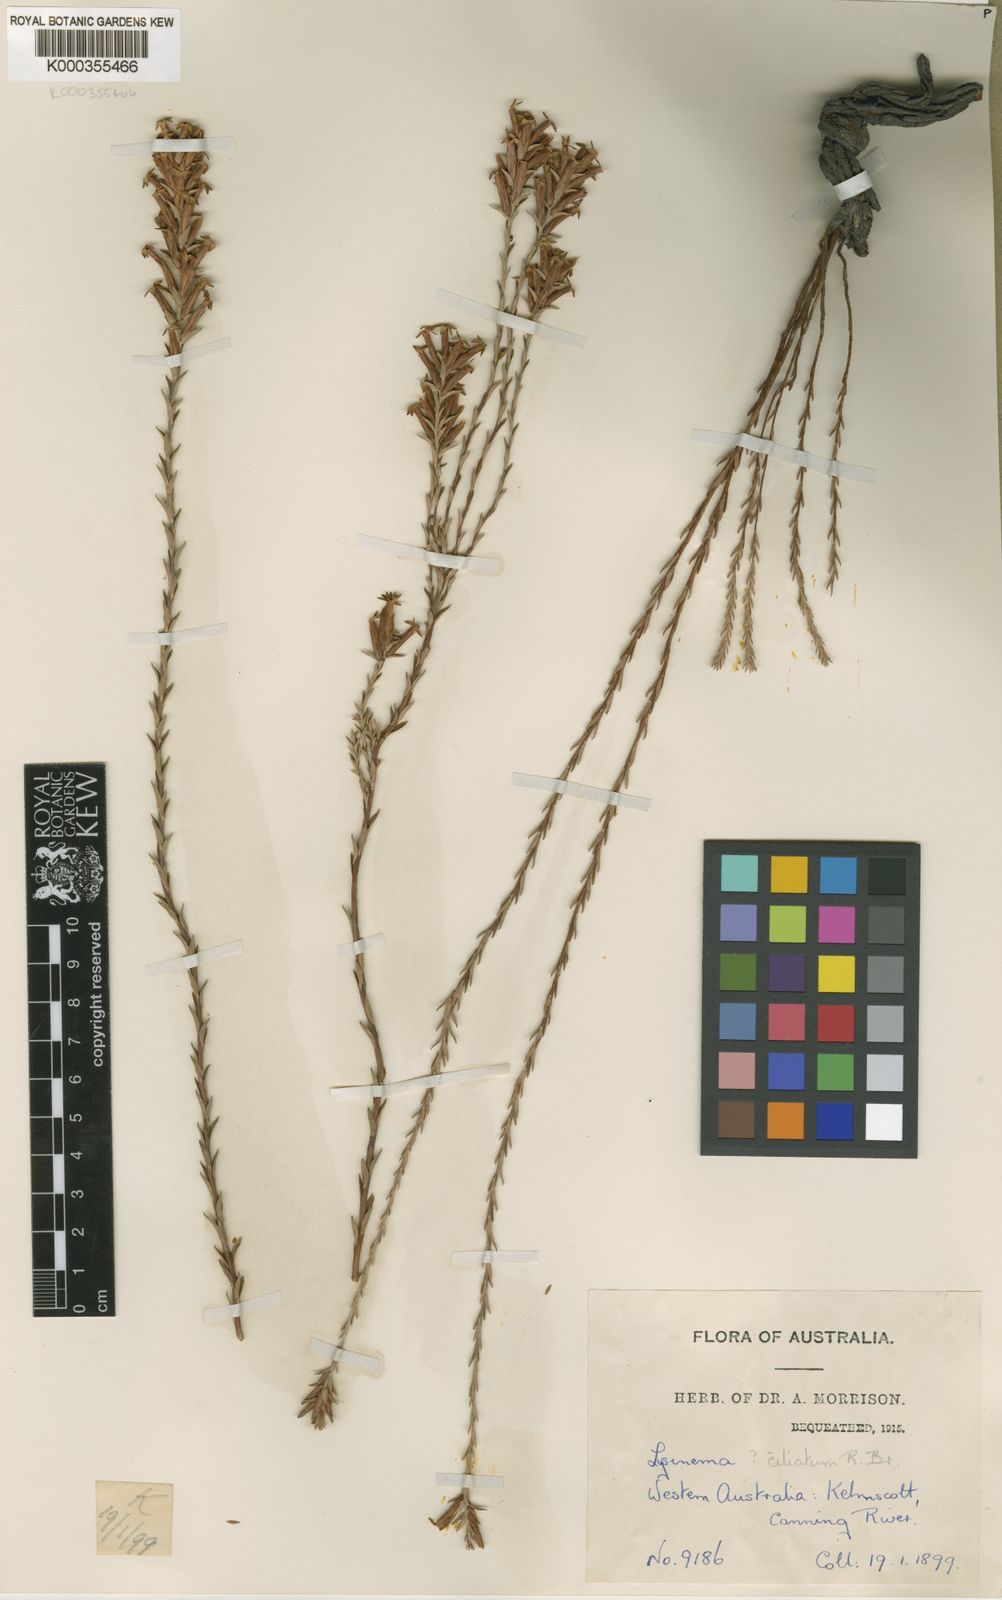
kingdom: Plantae
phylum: Tracheophyta
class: Magnoliopsida
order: Ericales
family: Ericaceae
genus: Lysinema
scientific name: Lysinema ciliatum
